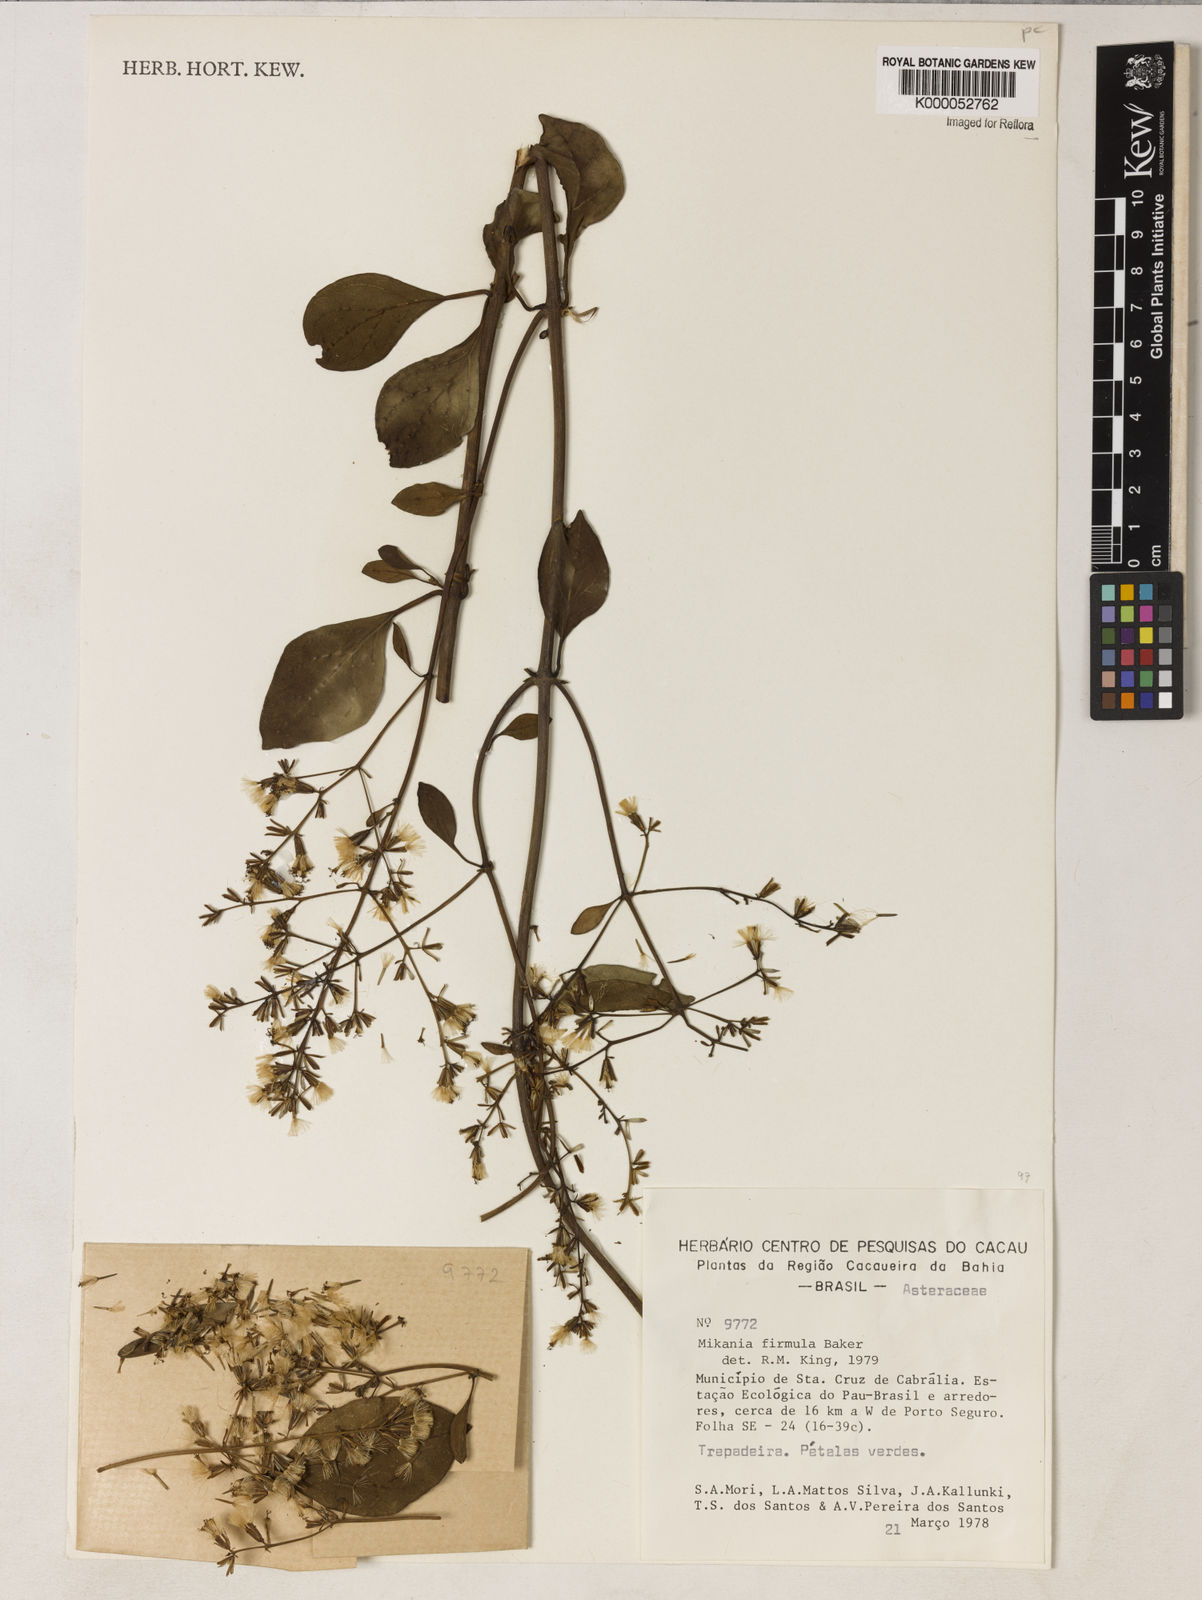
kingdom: Plantae
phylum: Tracheophyta
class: Magnoliopsida
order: Asterales
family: Asteraceae
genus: Mikania
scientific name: Mikania firmula
